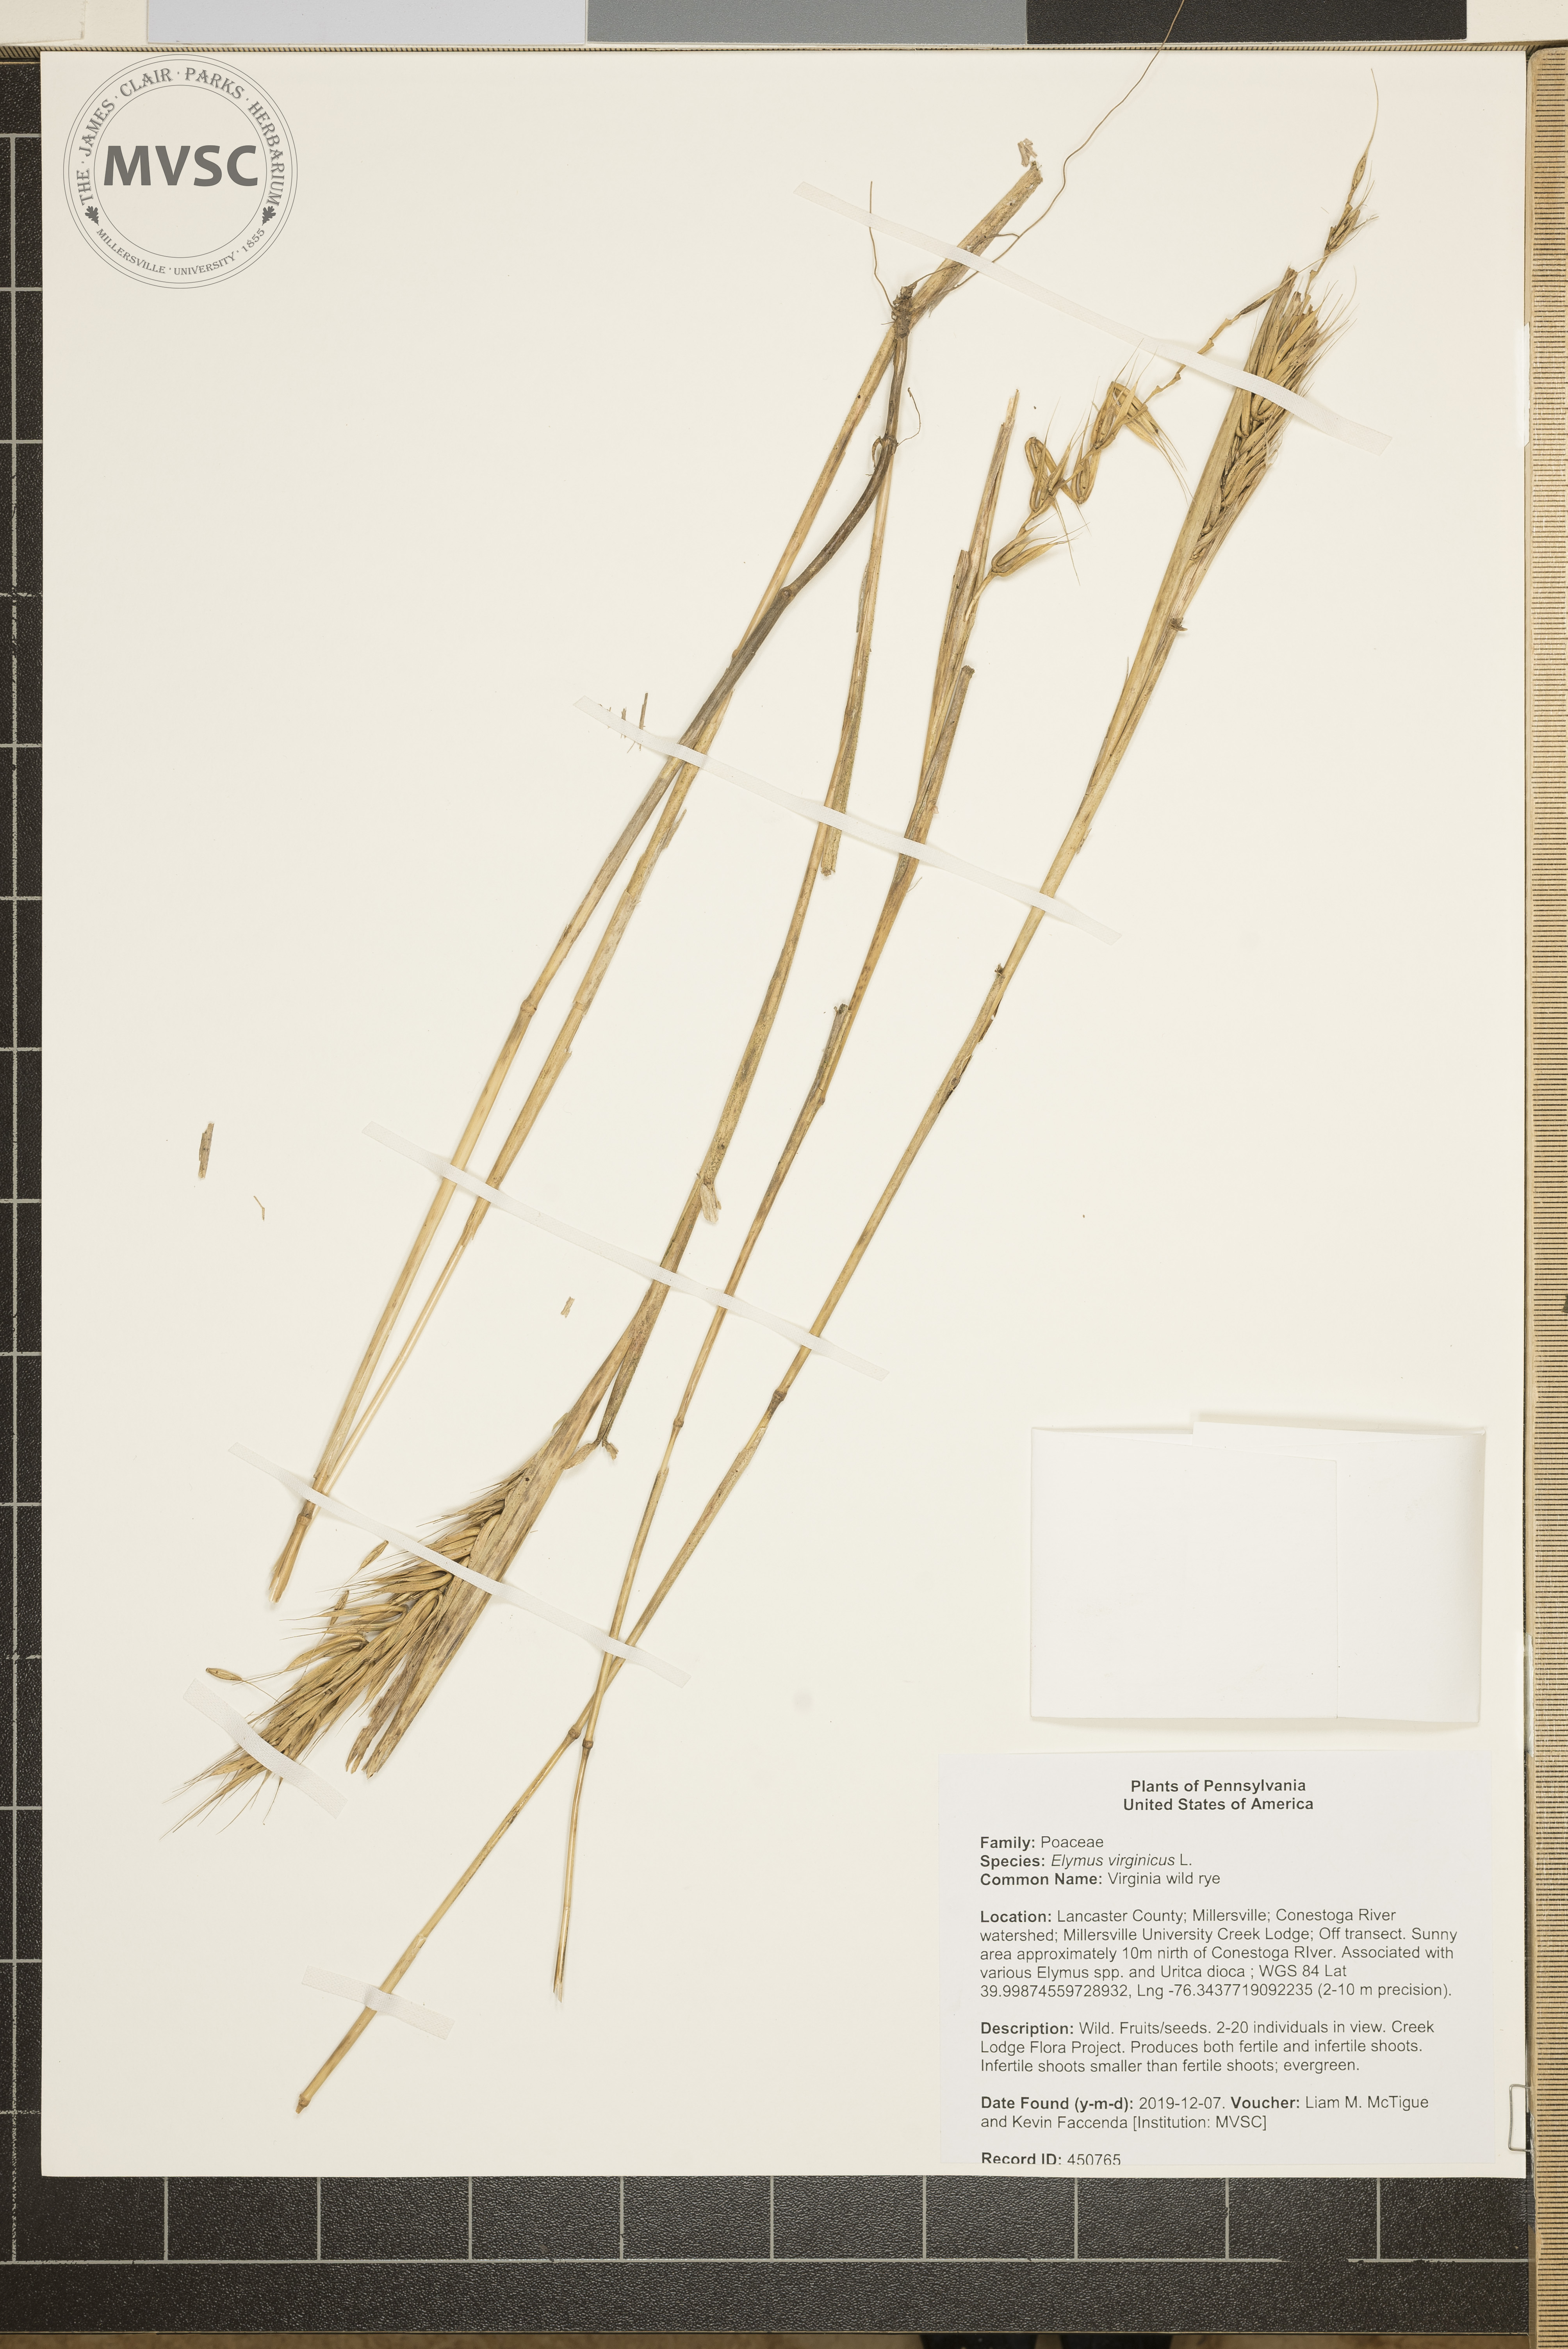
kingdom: Plantae
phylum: Tracheophyta
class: Liliopsida
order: Poales
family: Poaceae
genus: Elymus
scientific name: Elymus virginicus
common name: Virginia wild rye
